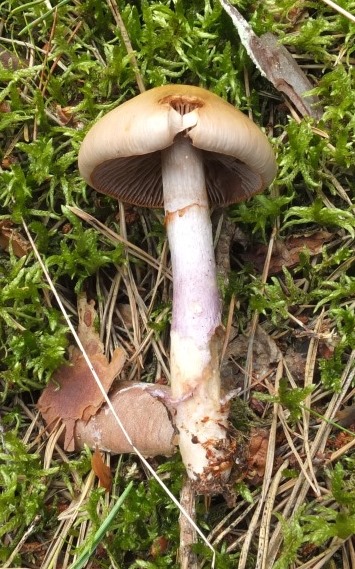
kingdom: Fungi
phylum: Basidiomycota
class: Agaricomycetes
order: Agaricales
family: Cortinariaceae
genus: Cortinarius
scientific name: Cortinarius stillatitius
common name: honningduftende slørhat
